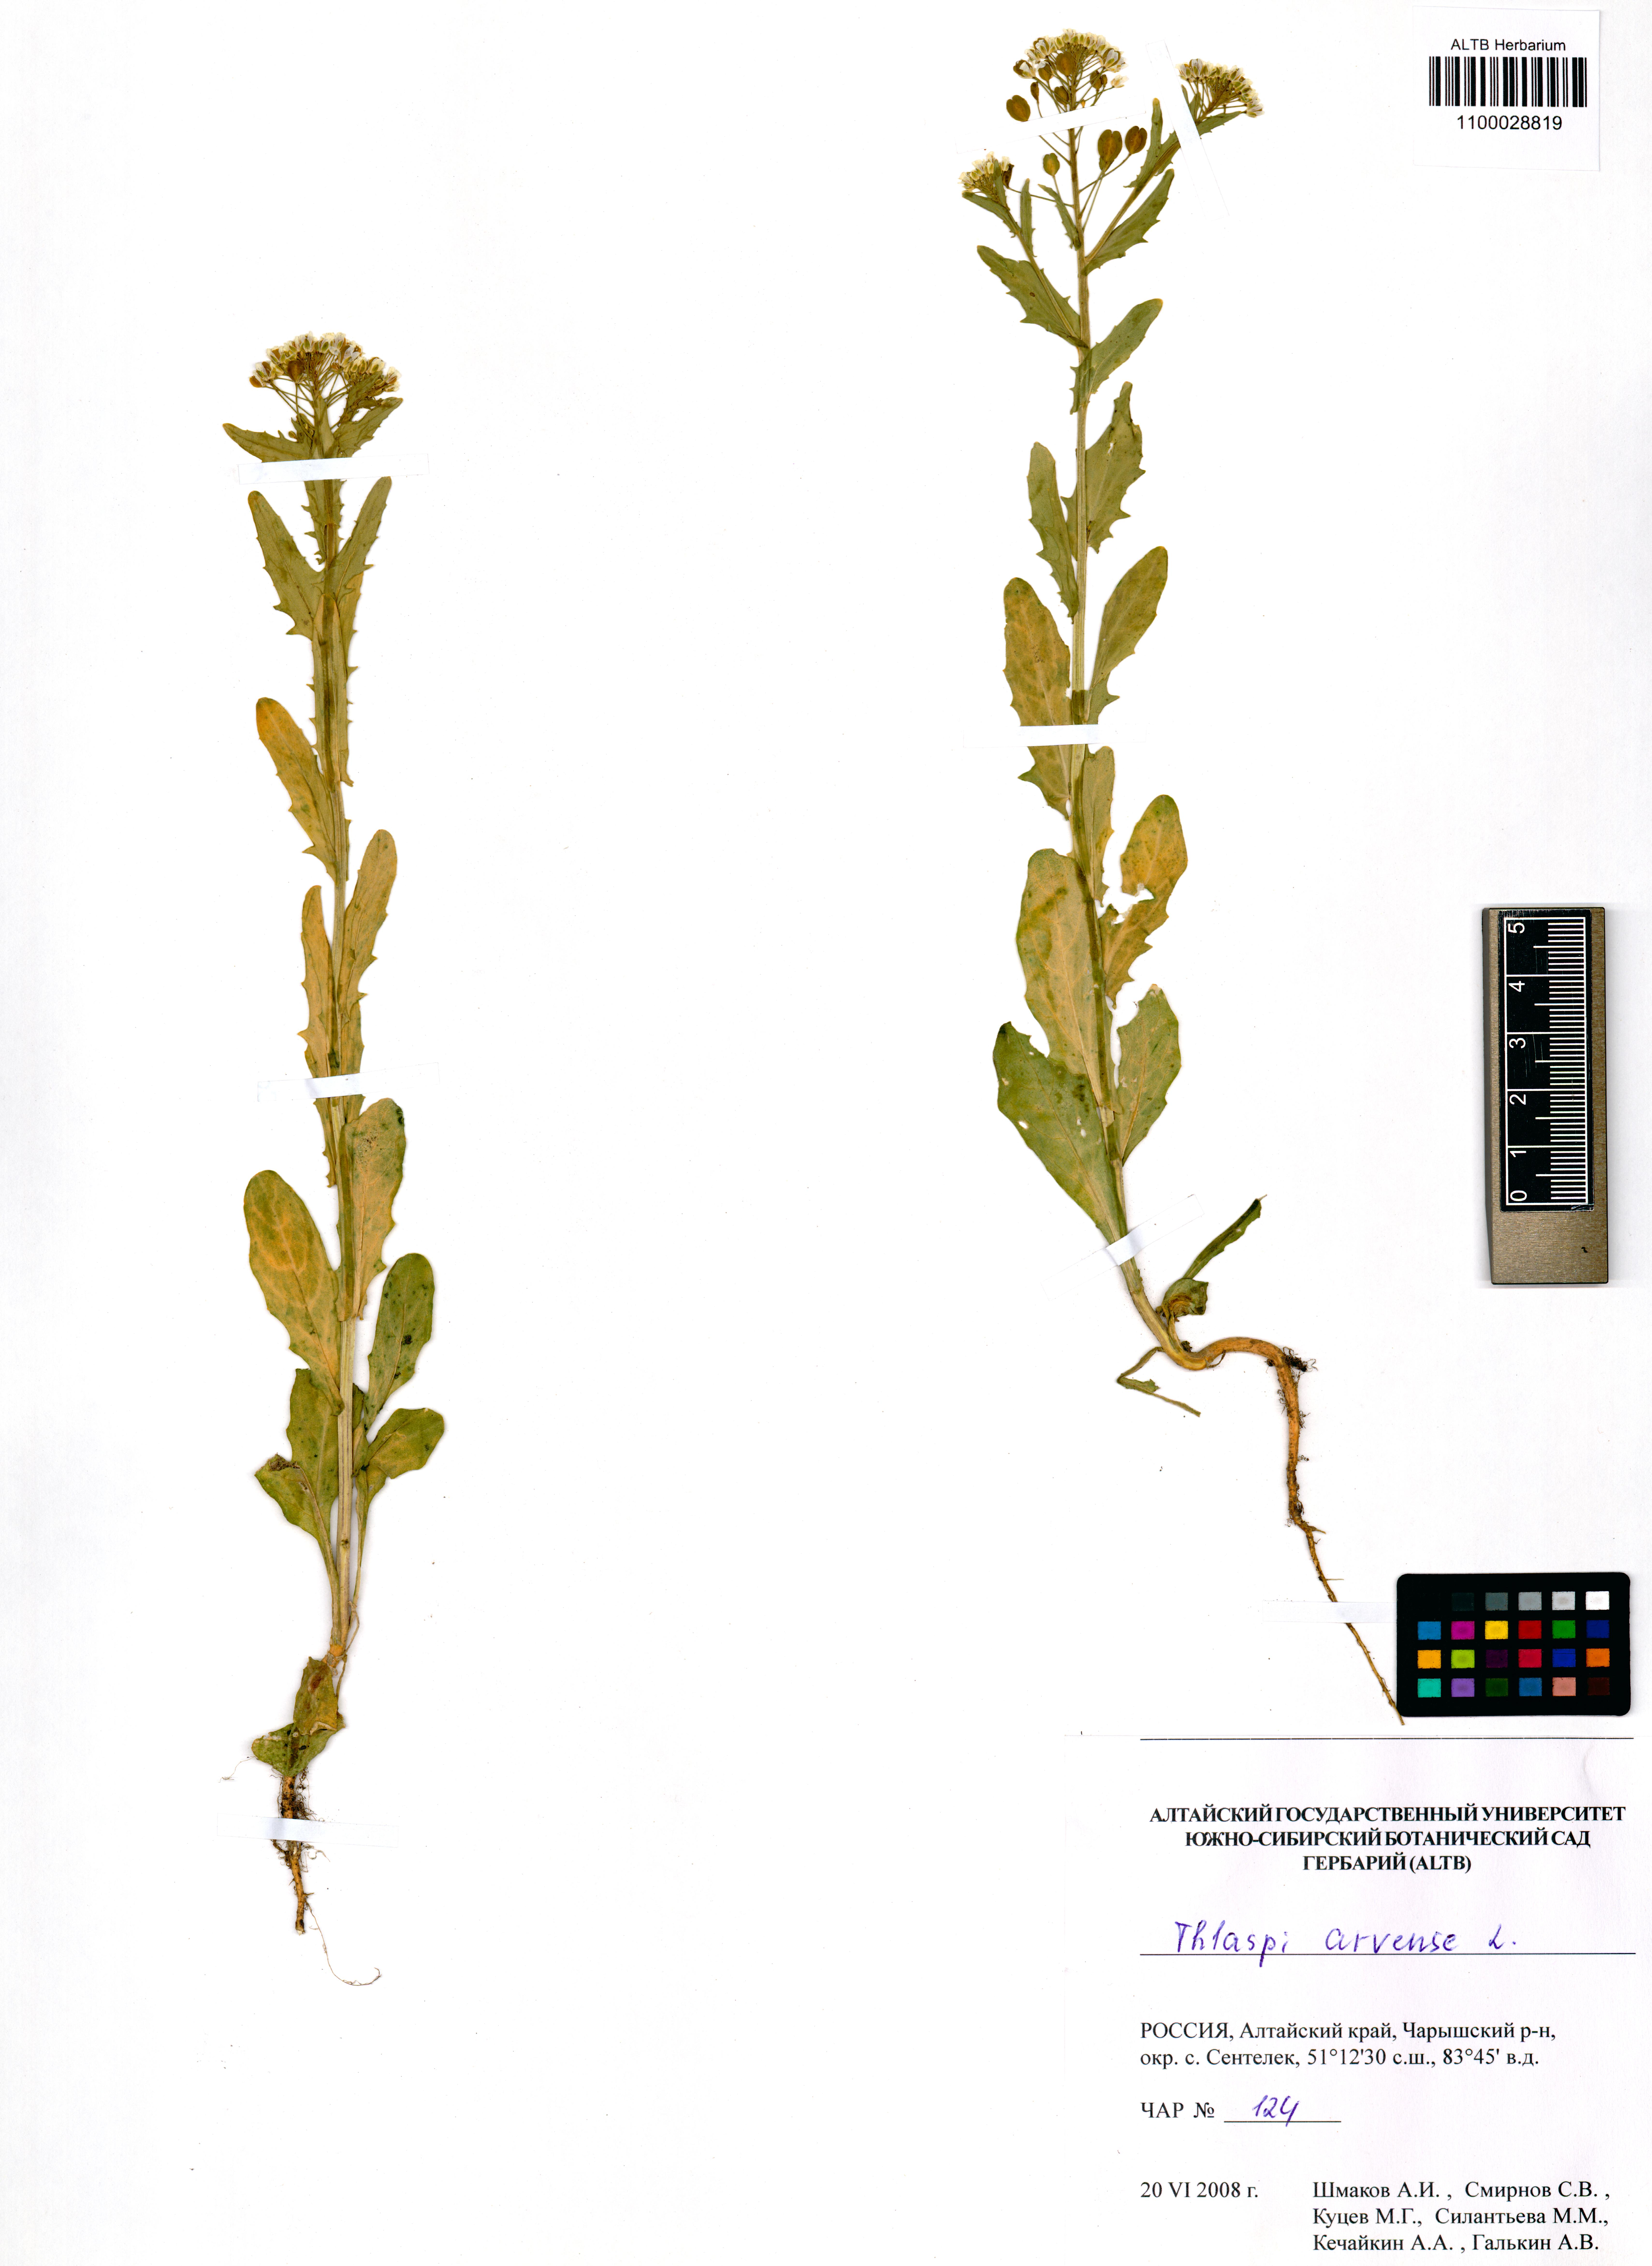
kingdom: Plantae
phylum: Tracheophyta
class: Magnoliopsida
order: Brassicales
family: Brassicaceae
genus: Thlaspi
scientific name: Thlaspi arvense
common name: Field pennycress
